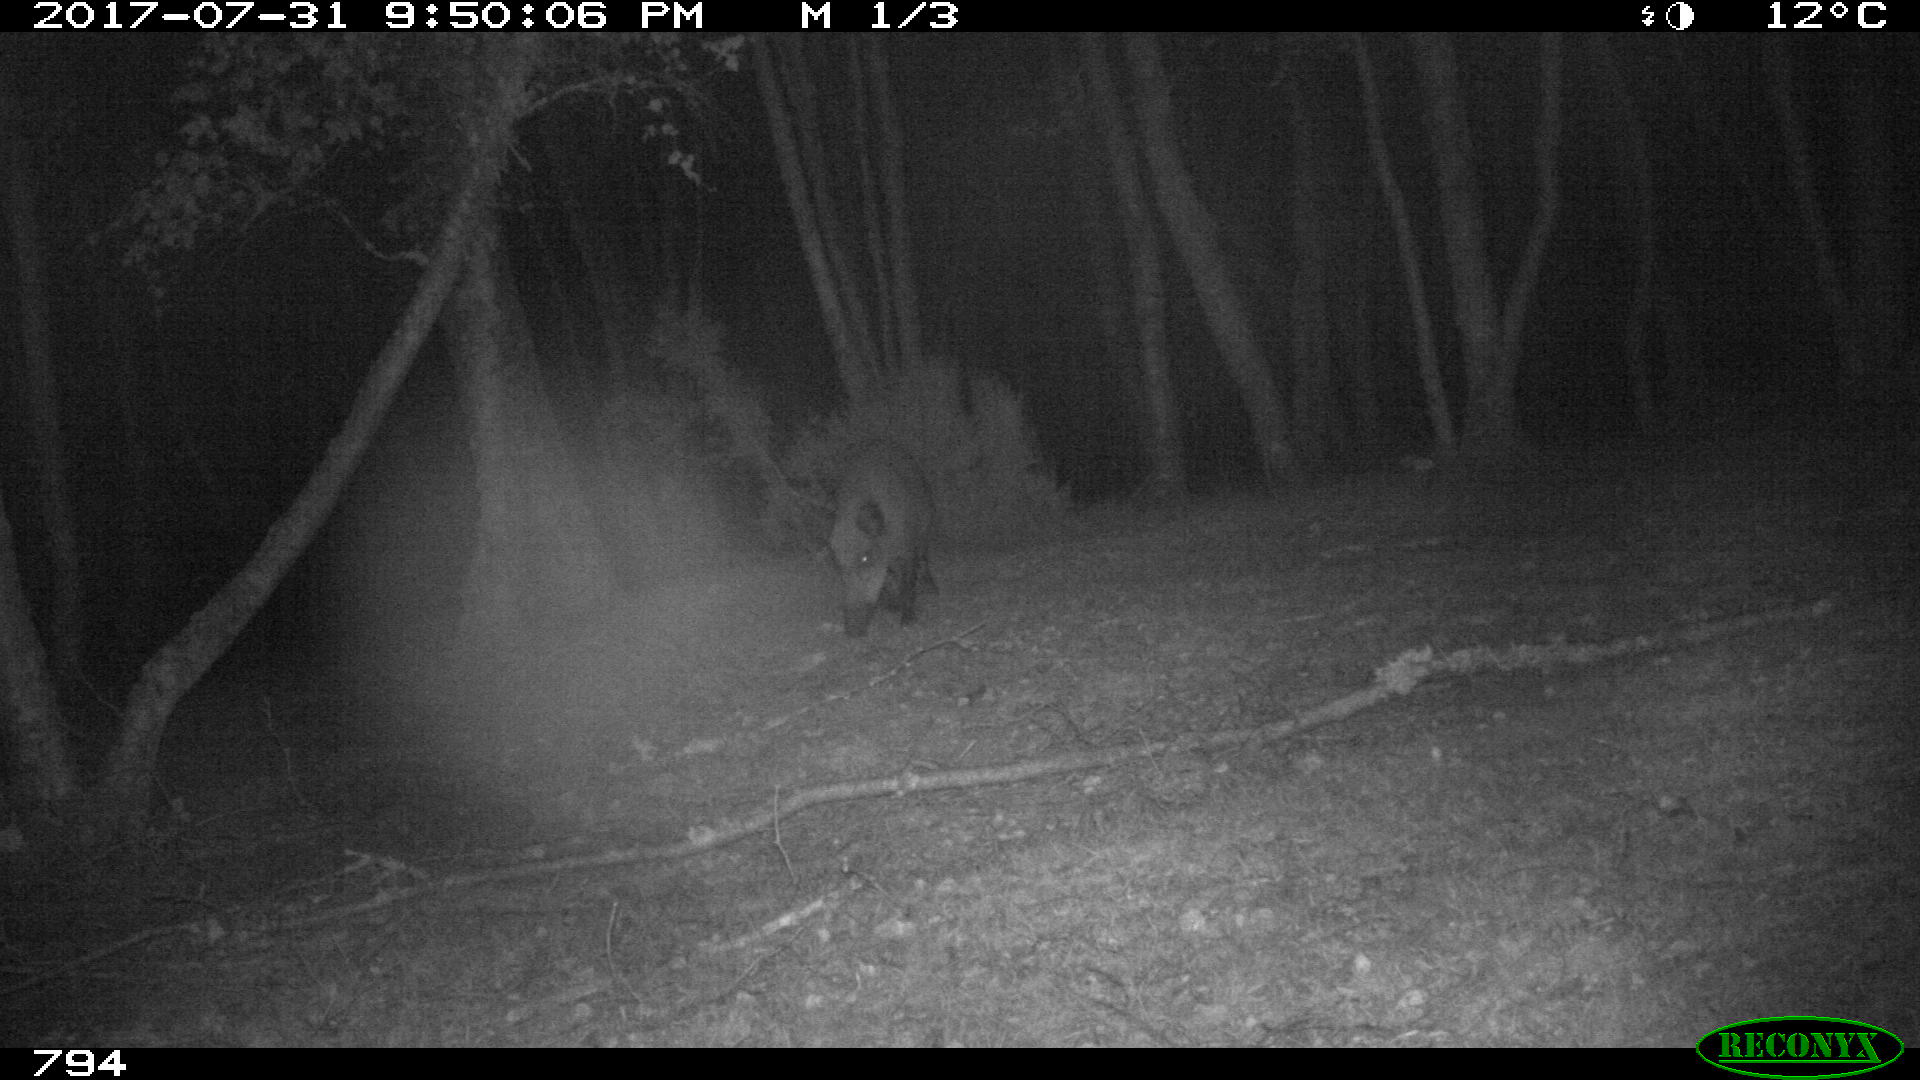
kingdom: Animalia
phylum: Chordata
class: Mammalia
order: Artiodactyla
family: Suidae
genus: Sus
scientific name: Sus scrofa
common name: Wild boar
